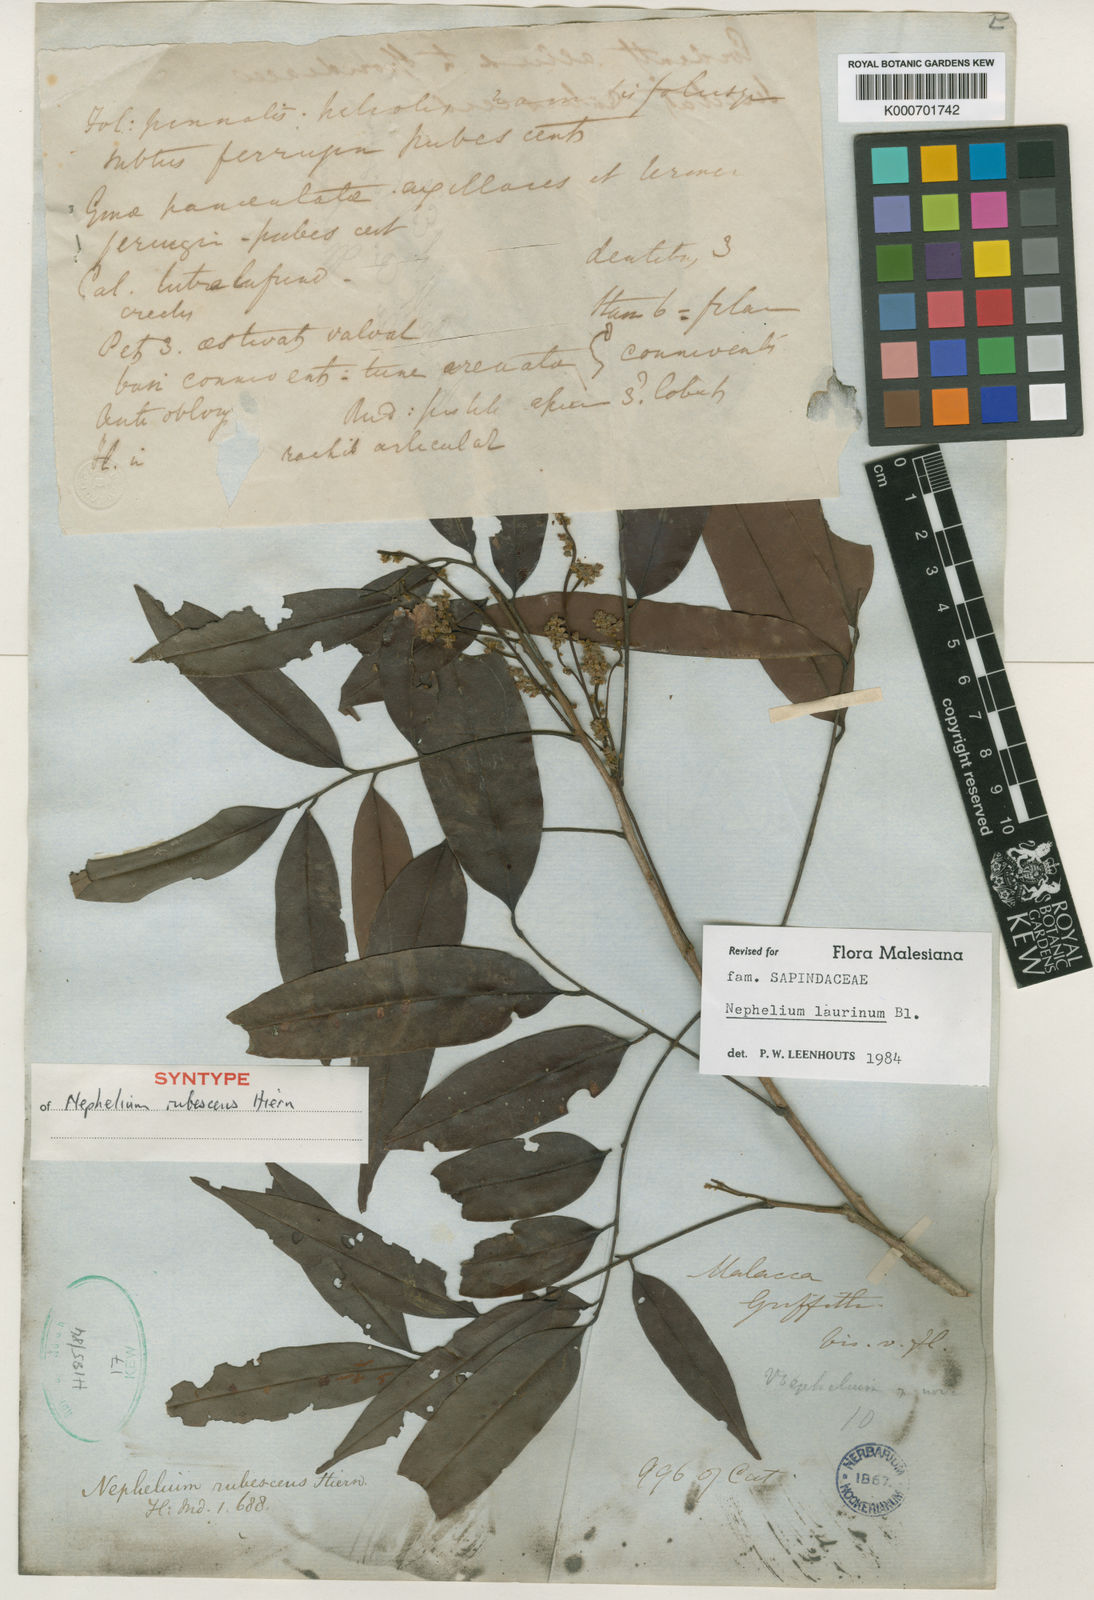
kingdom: Plantae
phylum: Tracheophyta
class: Magnoliopsida
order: Sapindales
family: Sapindaceae
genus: Nephelium
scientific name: Nephelium laurinum
